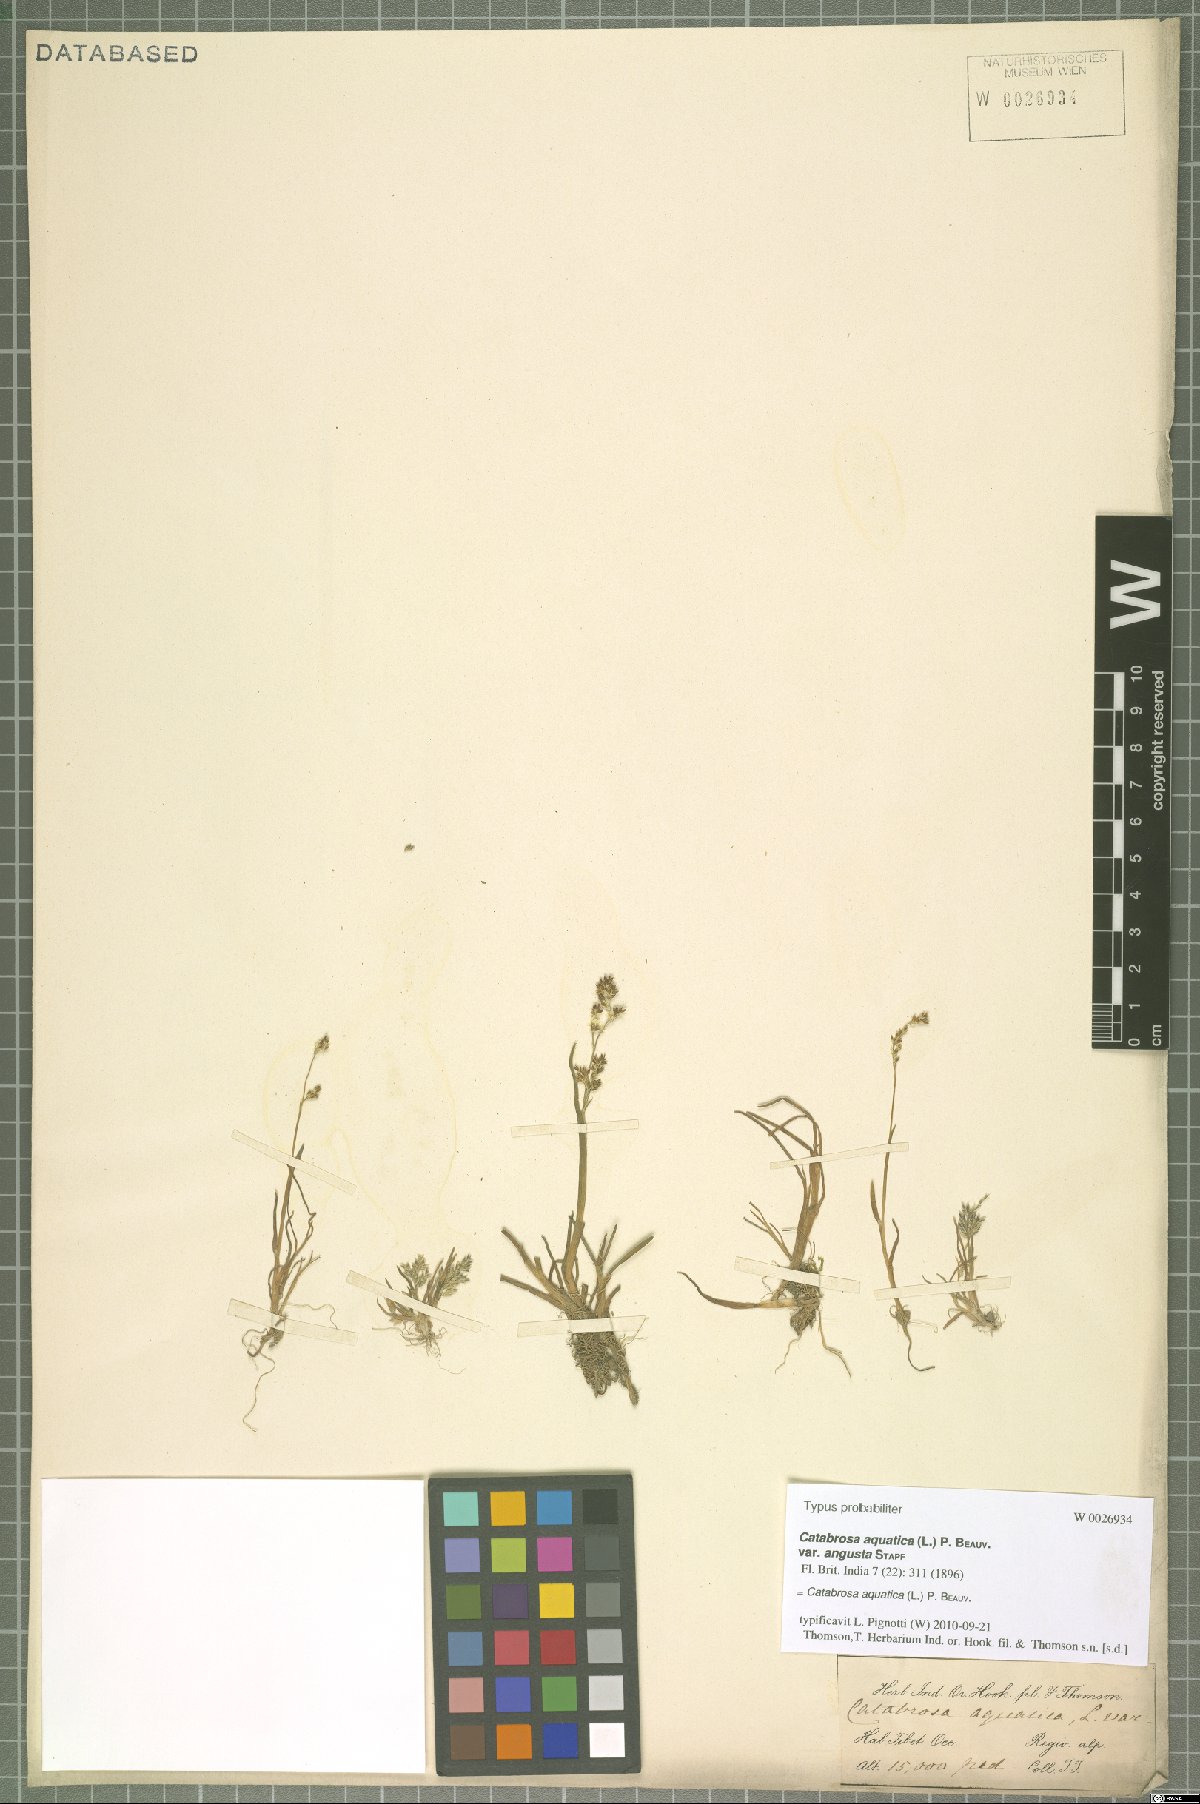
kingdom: Plantae
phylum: Tracheophyta
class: Liliopsida
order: Poales
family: Poaceae
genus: Catabrosa
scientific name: Catabrosa aquatica
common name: Whorl-grass
